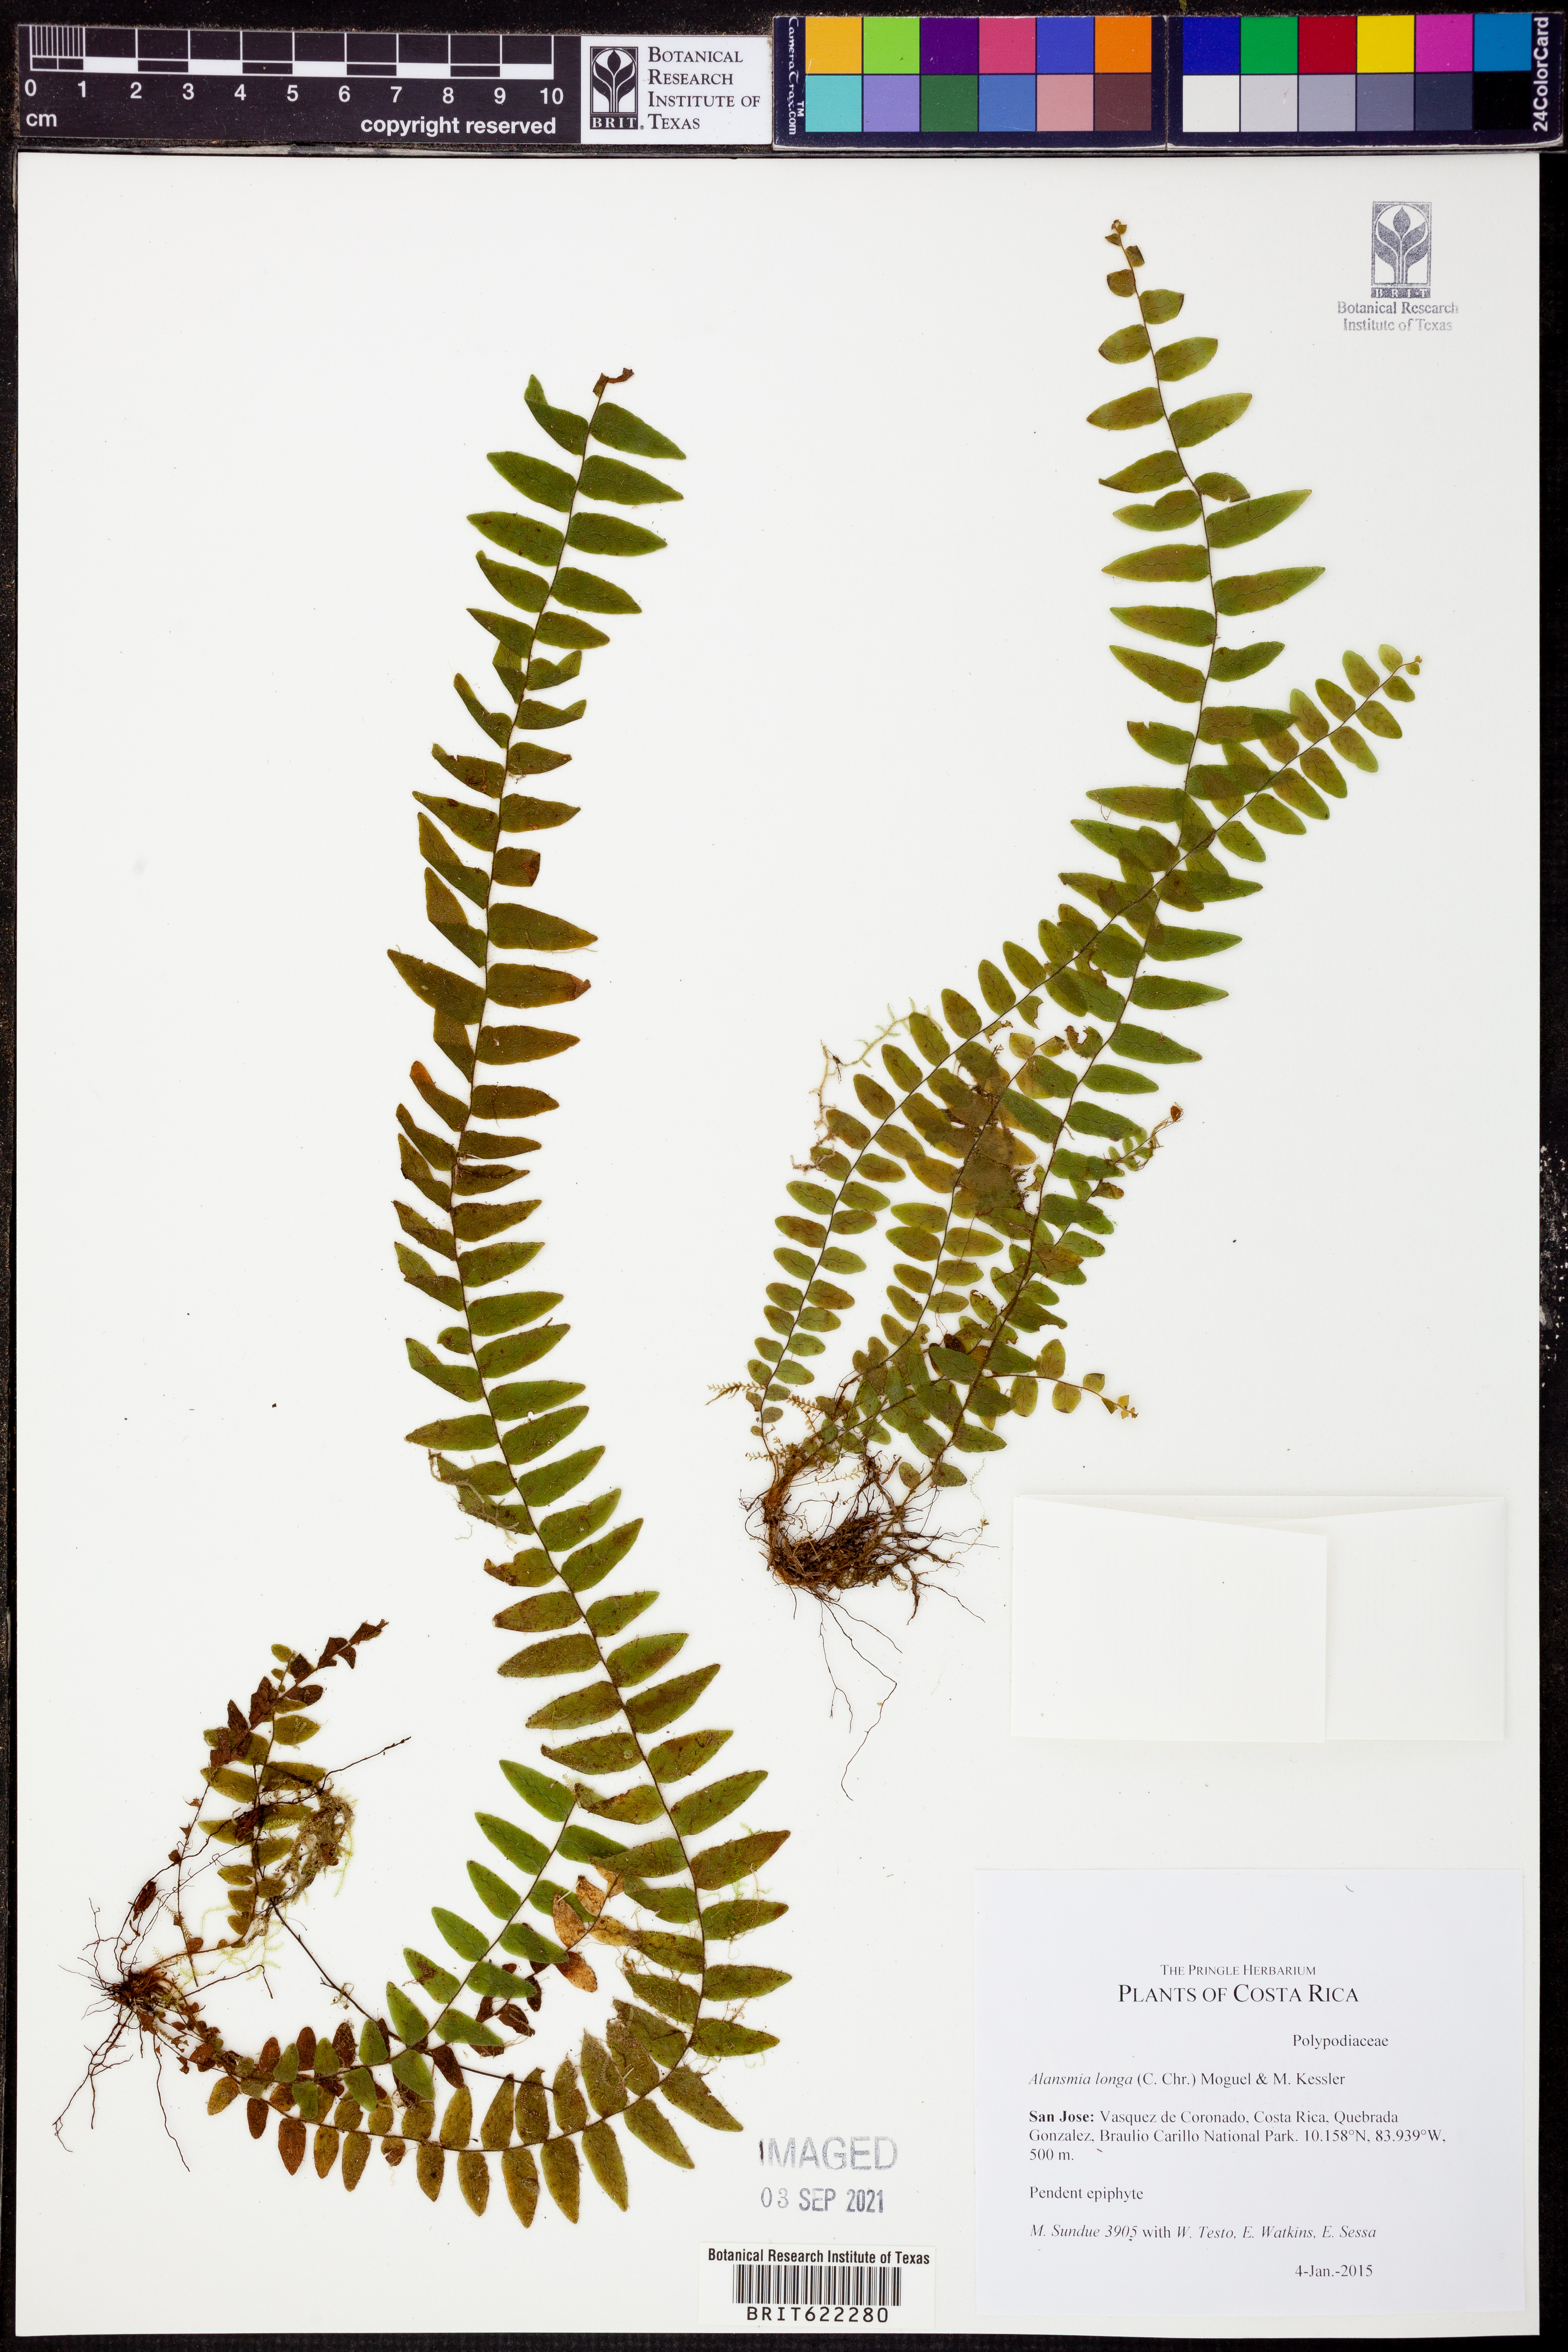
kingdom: Plantae
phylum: Tracheophyta
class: Polypodiopsida
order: Polypodiales
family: Polypodiaceae
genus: Alansmia
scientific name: Alansmia longa
